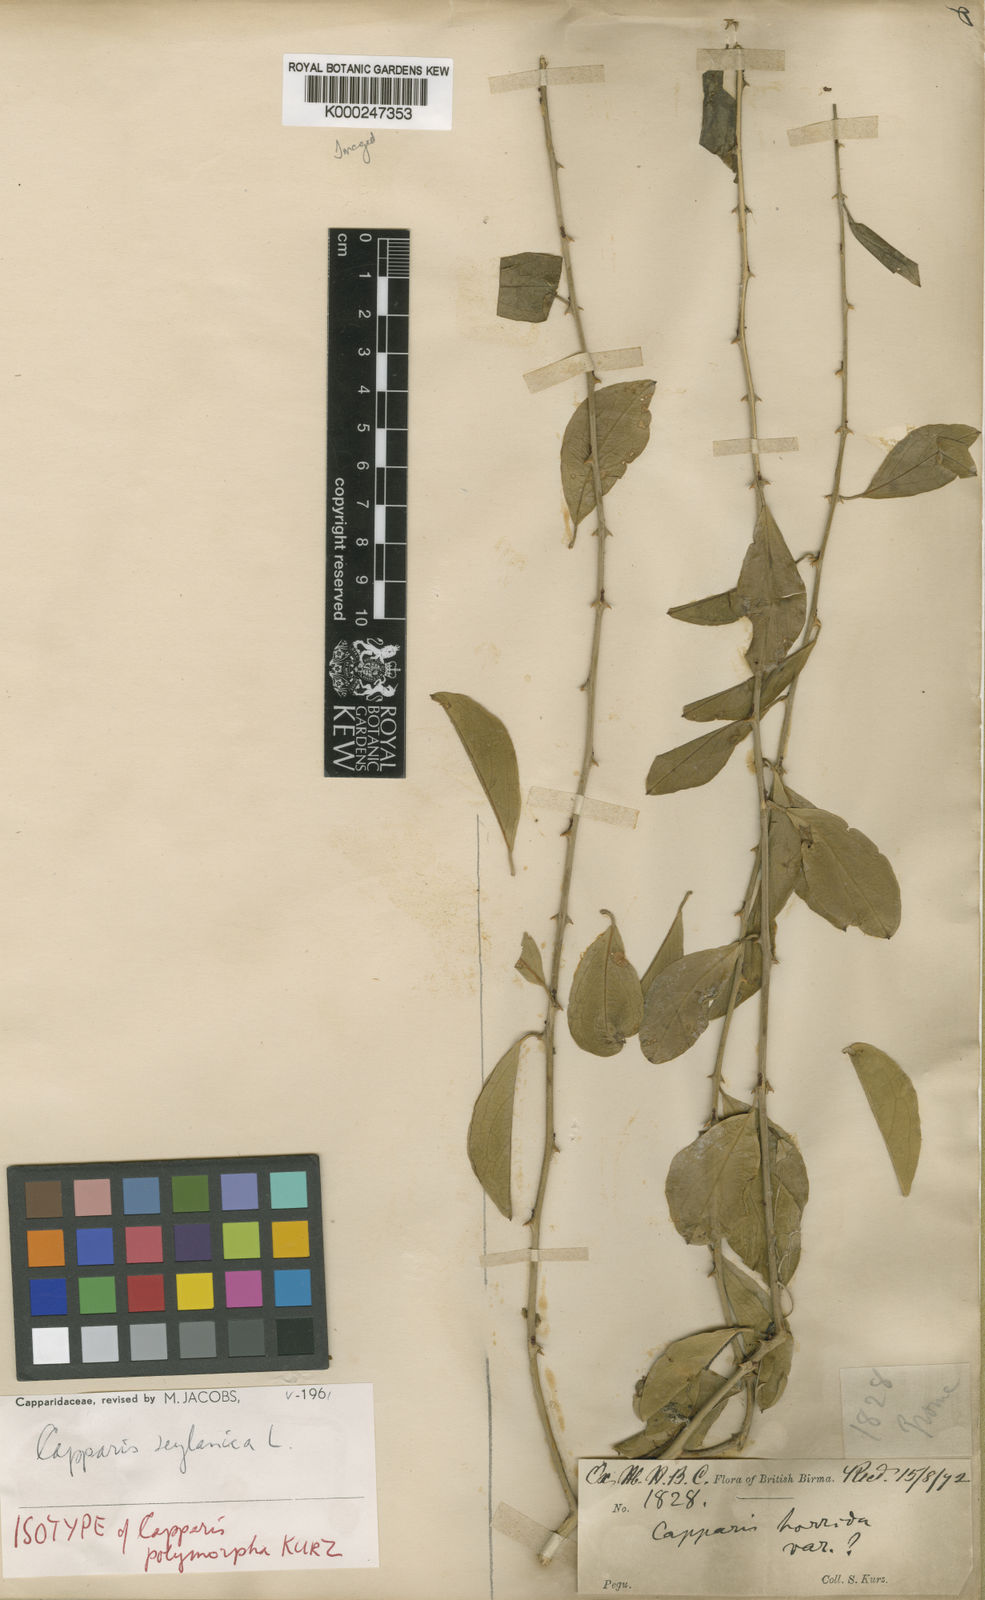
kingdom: Plantae
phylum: Tracheophyta
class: Magnoliopsida
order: Brassicales
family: Capparaceae
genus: Capparis
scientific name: Capparis zeylanica
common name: Ceylon caper
